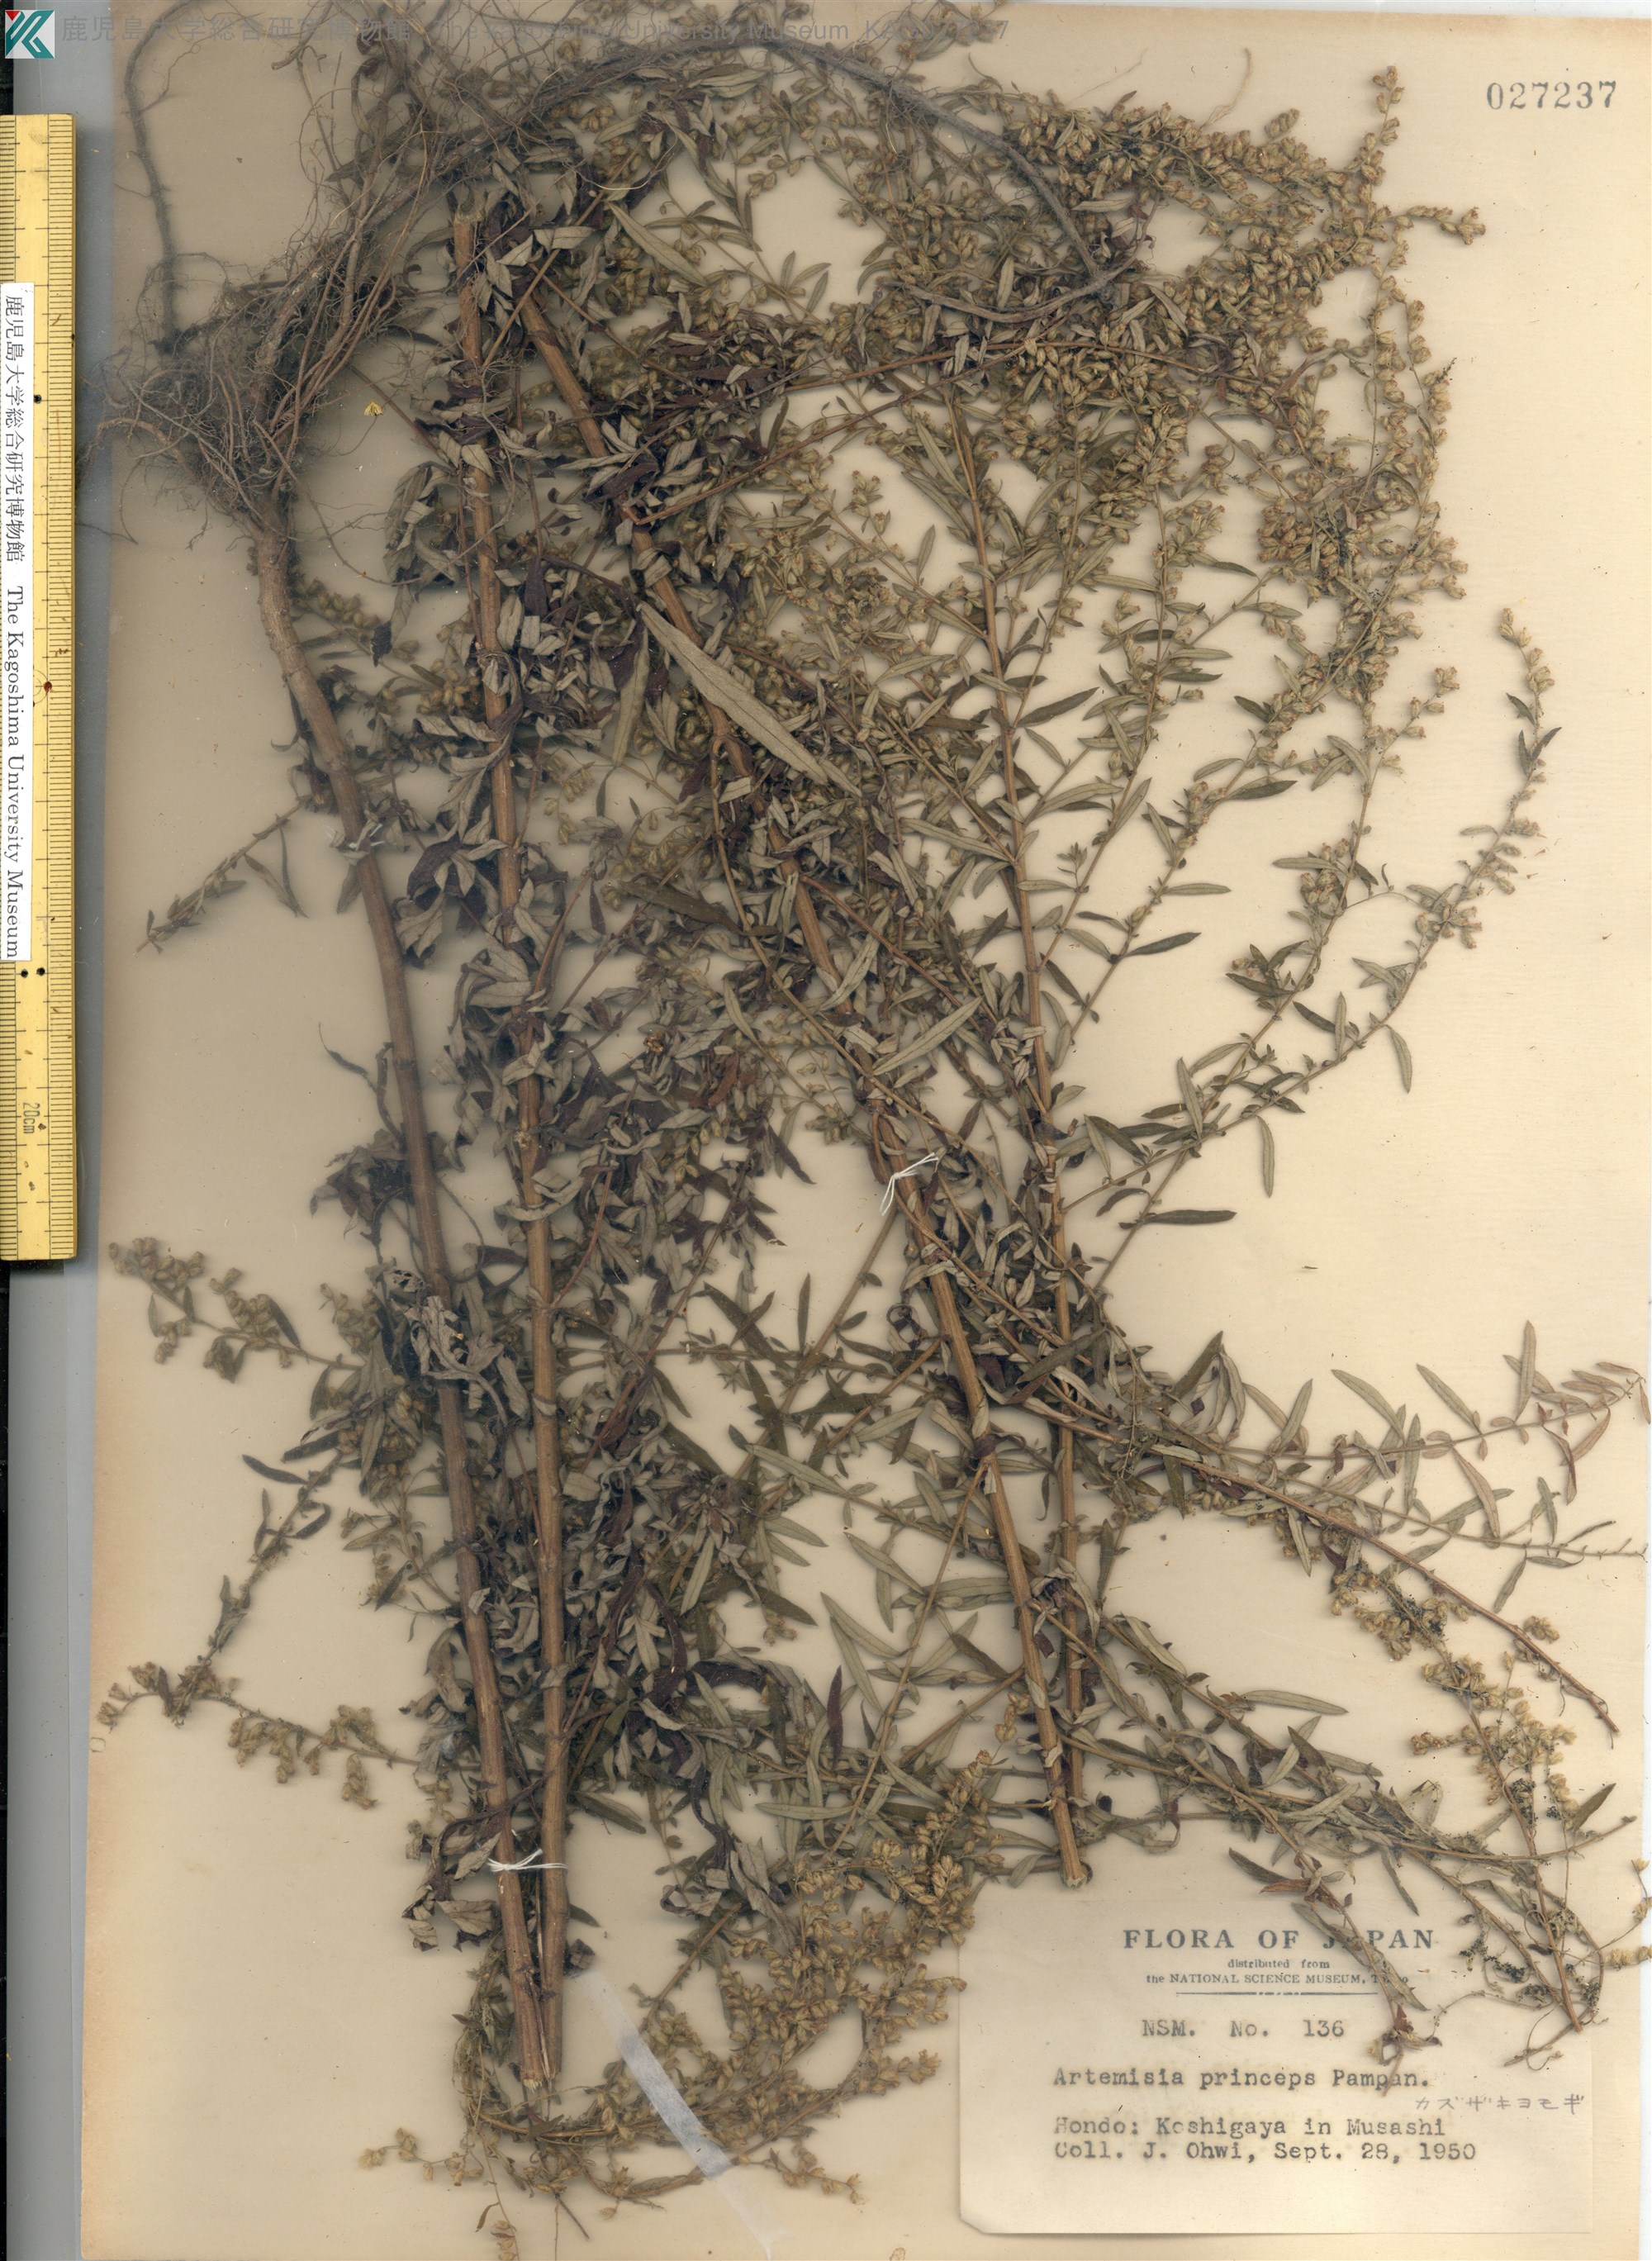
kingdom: Plantae
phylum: Tracheophyta
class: Magnoliopsida
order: Asterales
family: Asteraceae
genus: Artemisia
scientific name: Artemisia princeps
